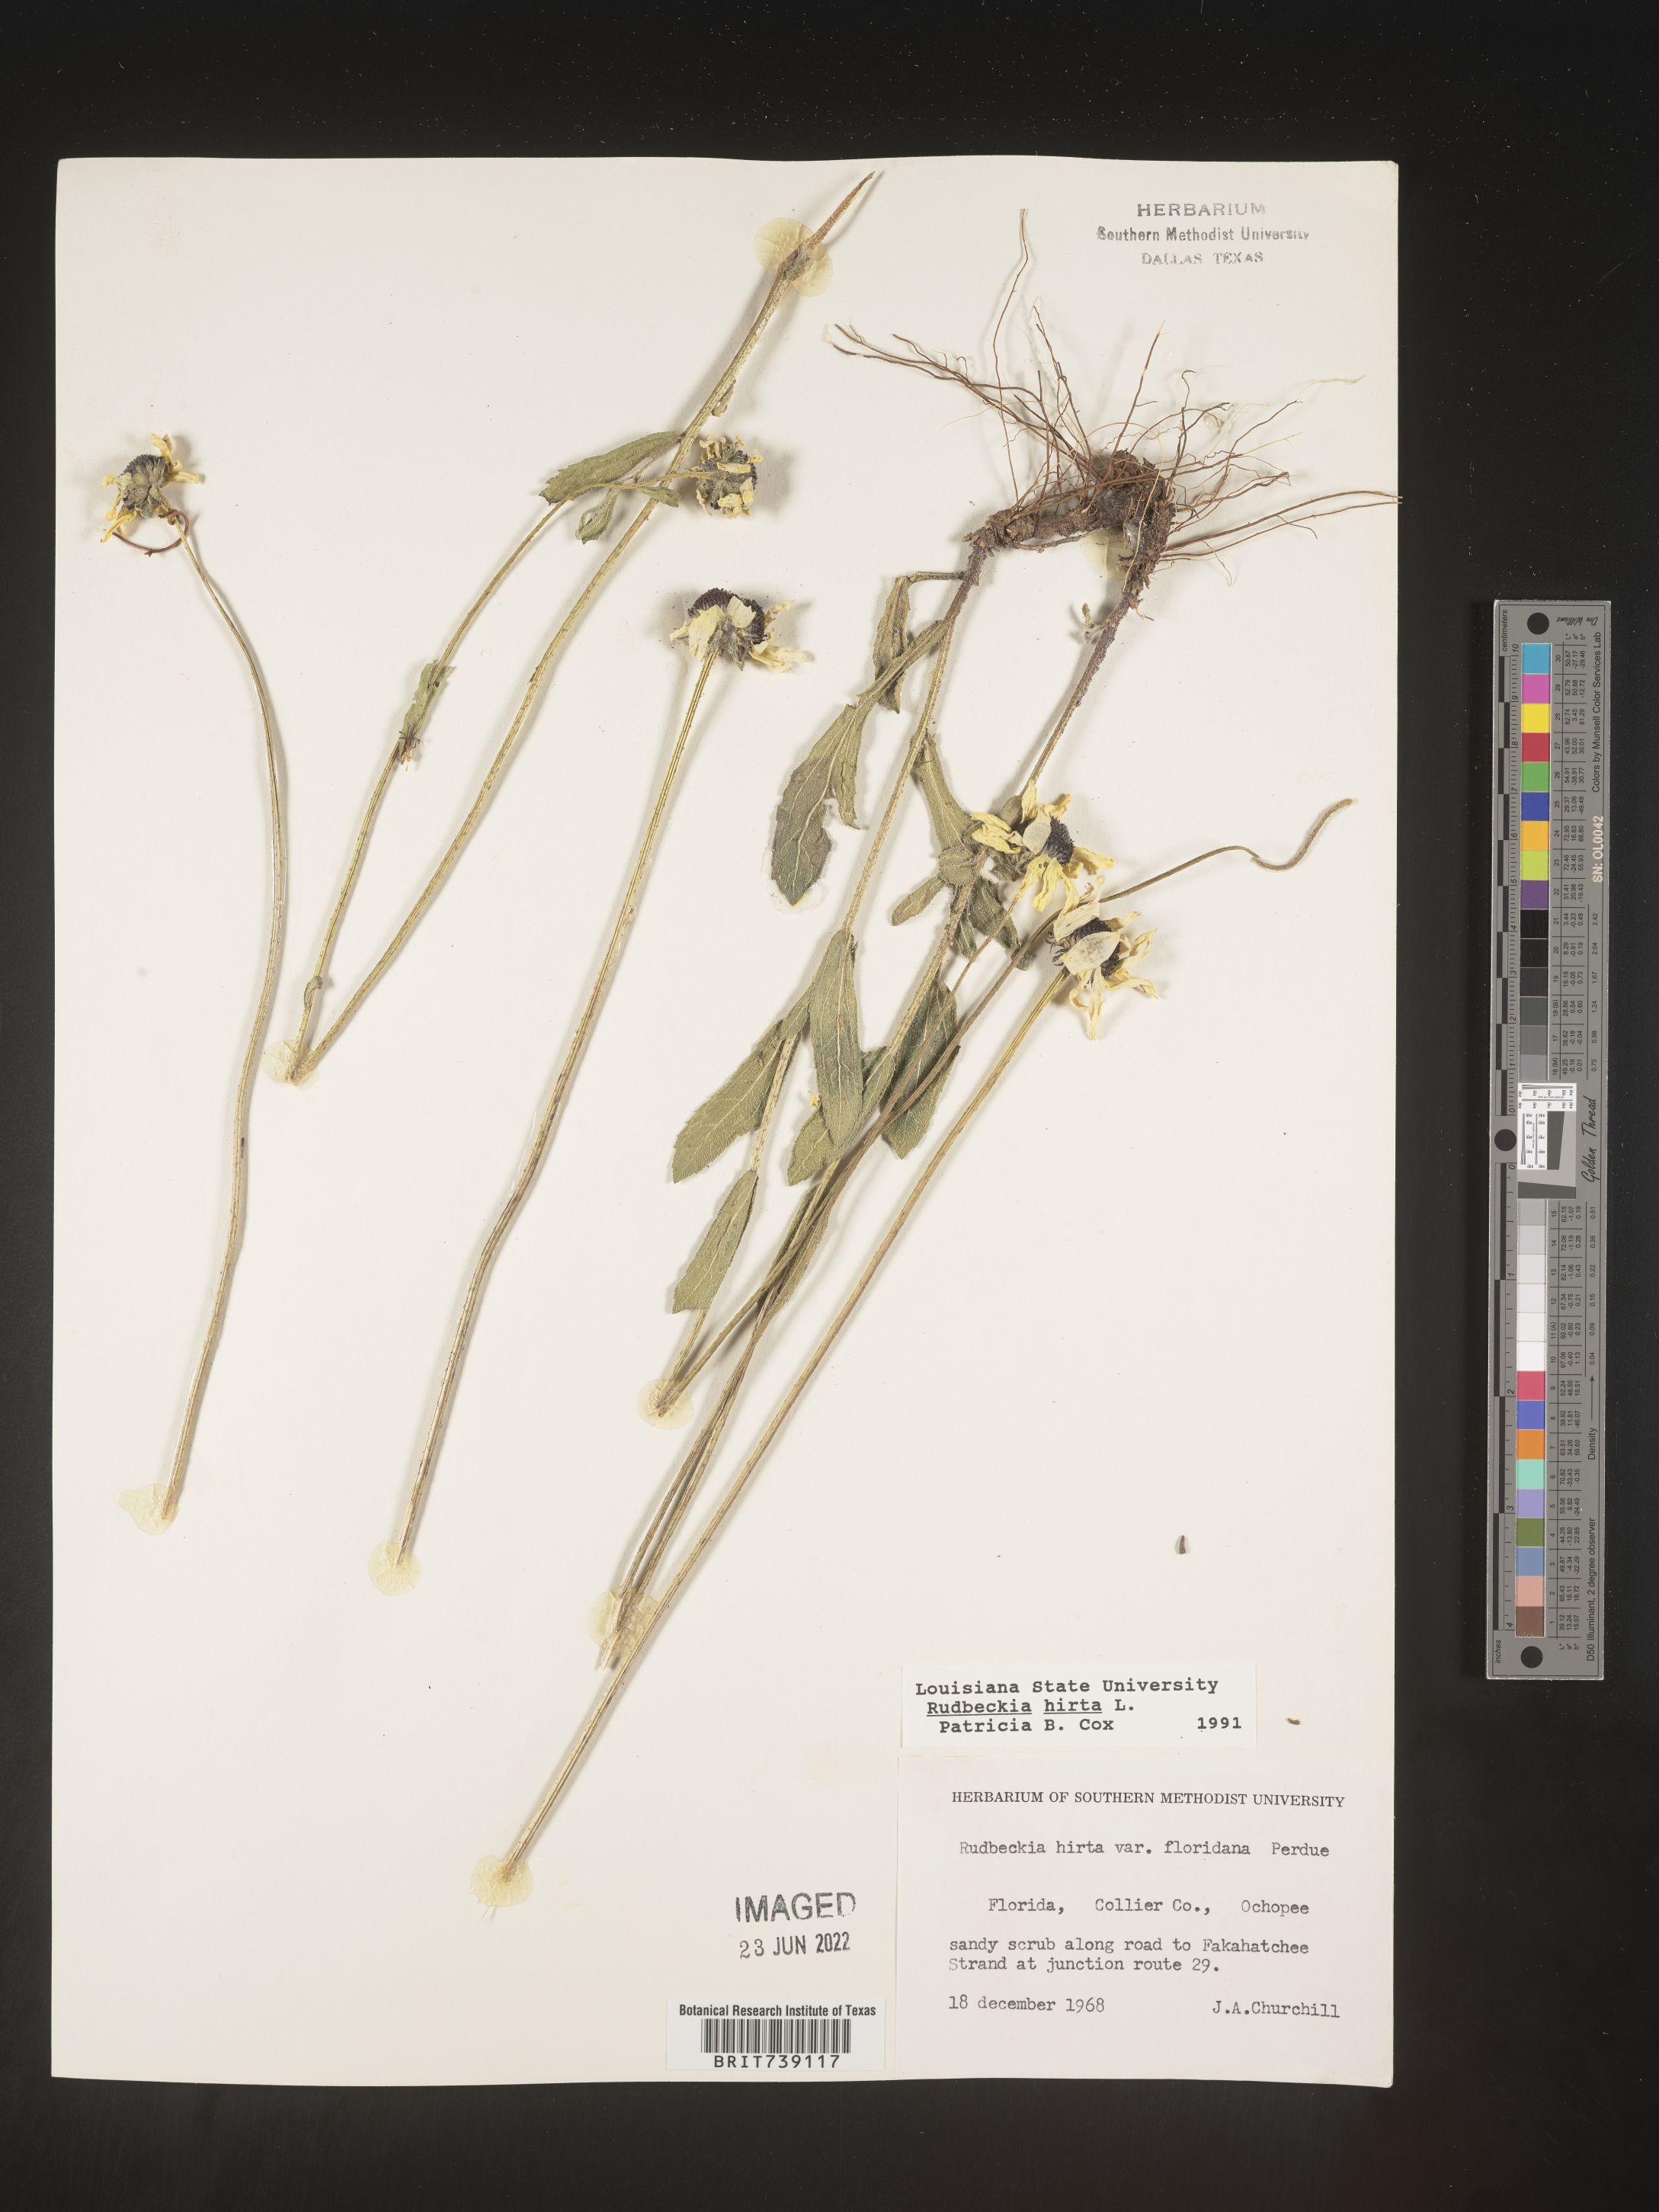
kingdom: Plantae
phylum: Tracheophyta
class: Magnoliopsida
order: Asterales
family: Asteraceae
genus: Rudbeckia
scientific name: Rudbeckia hirta
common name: Black-eyed-susan
